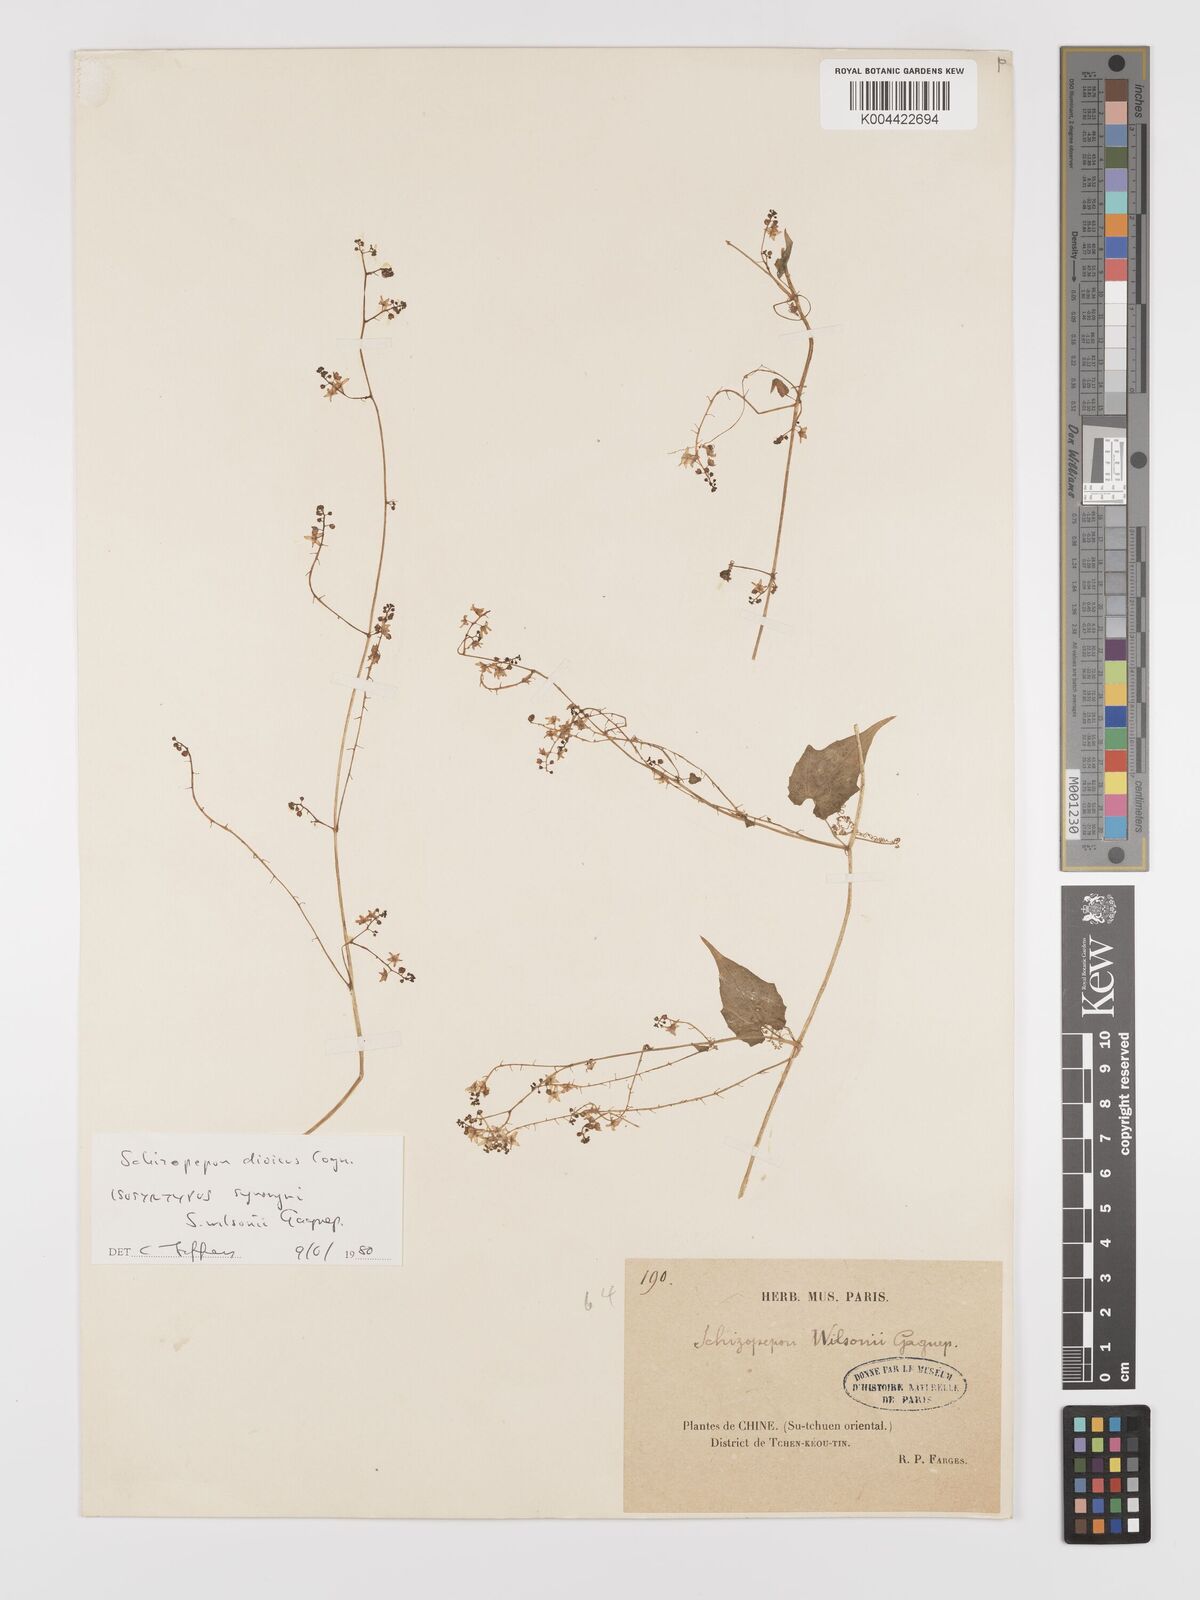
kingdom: Plantae
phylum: Tracheophyta
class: Magnoliopsida
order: Cucurbitales
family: Cucurbitaceae
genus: Schizopepon
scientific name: Schizopepon dioicus
